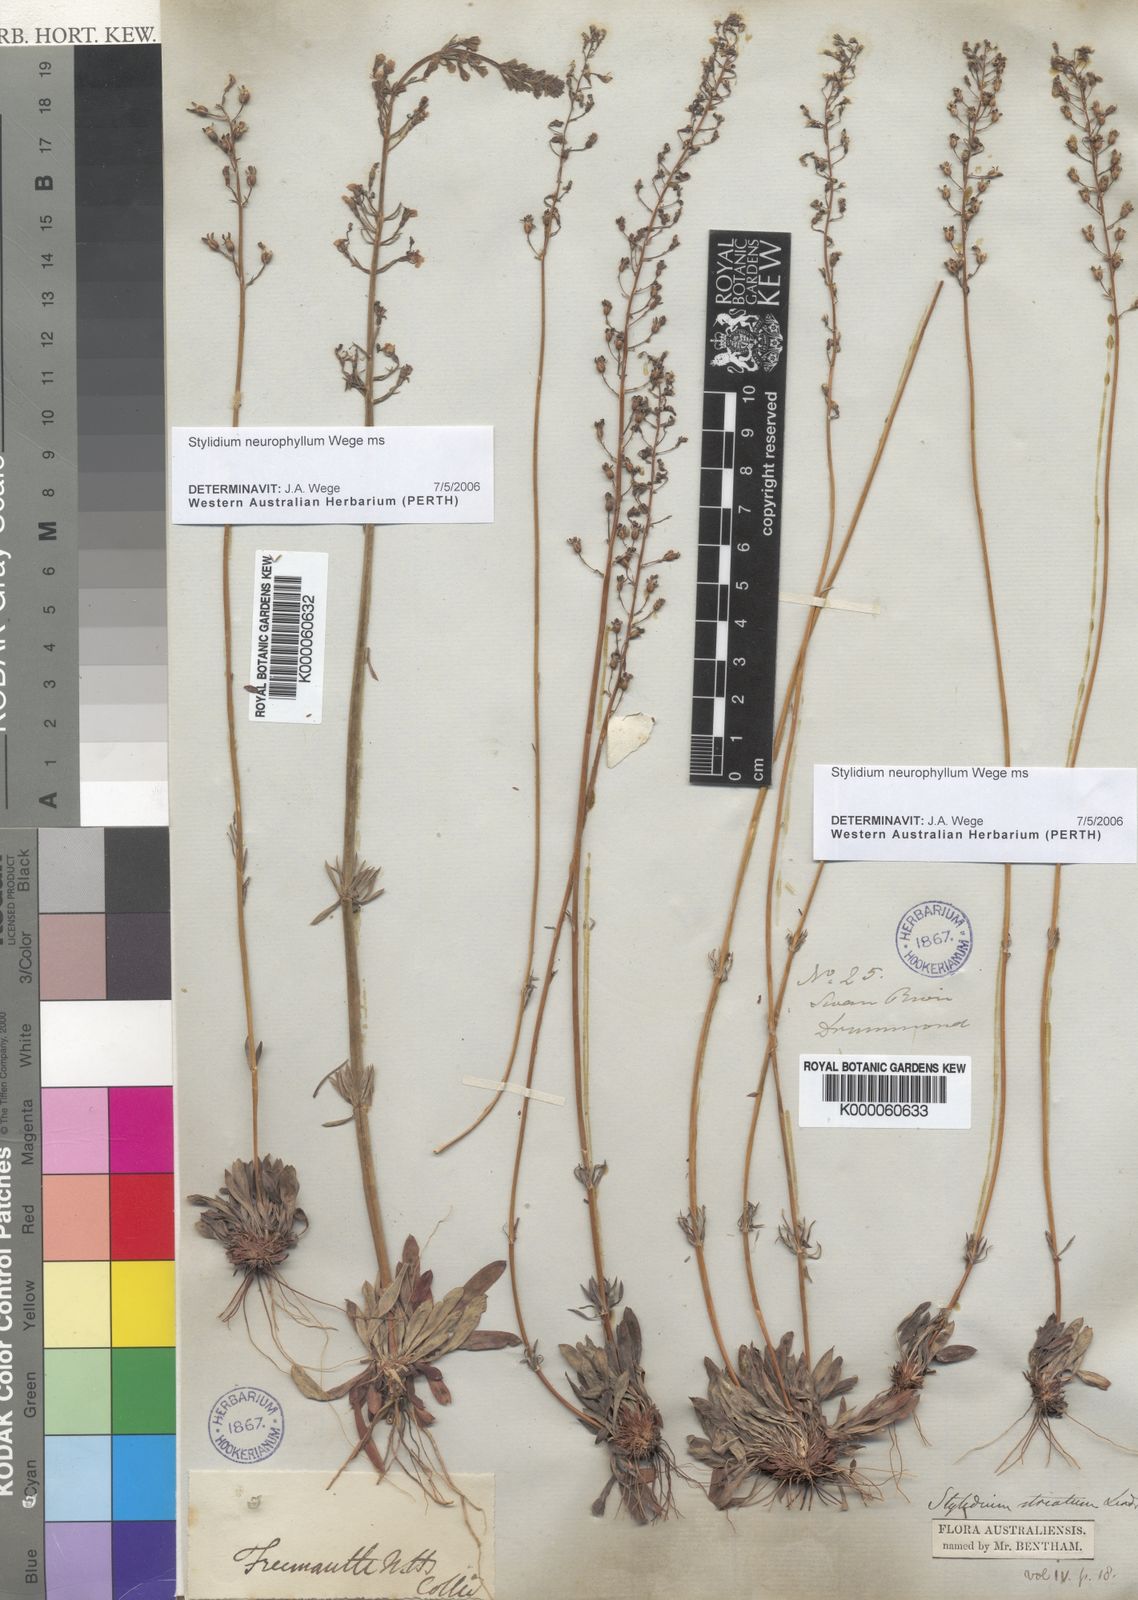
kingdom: Plantae
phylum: Tracheophyta
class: Magnoliopsida
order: Asterales
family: Stylidiaceae
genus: Stylidium
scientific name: Stylidium
